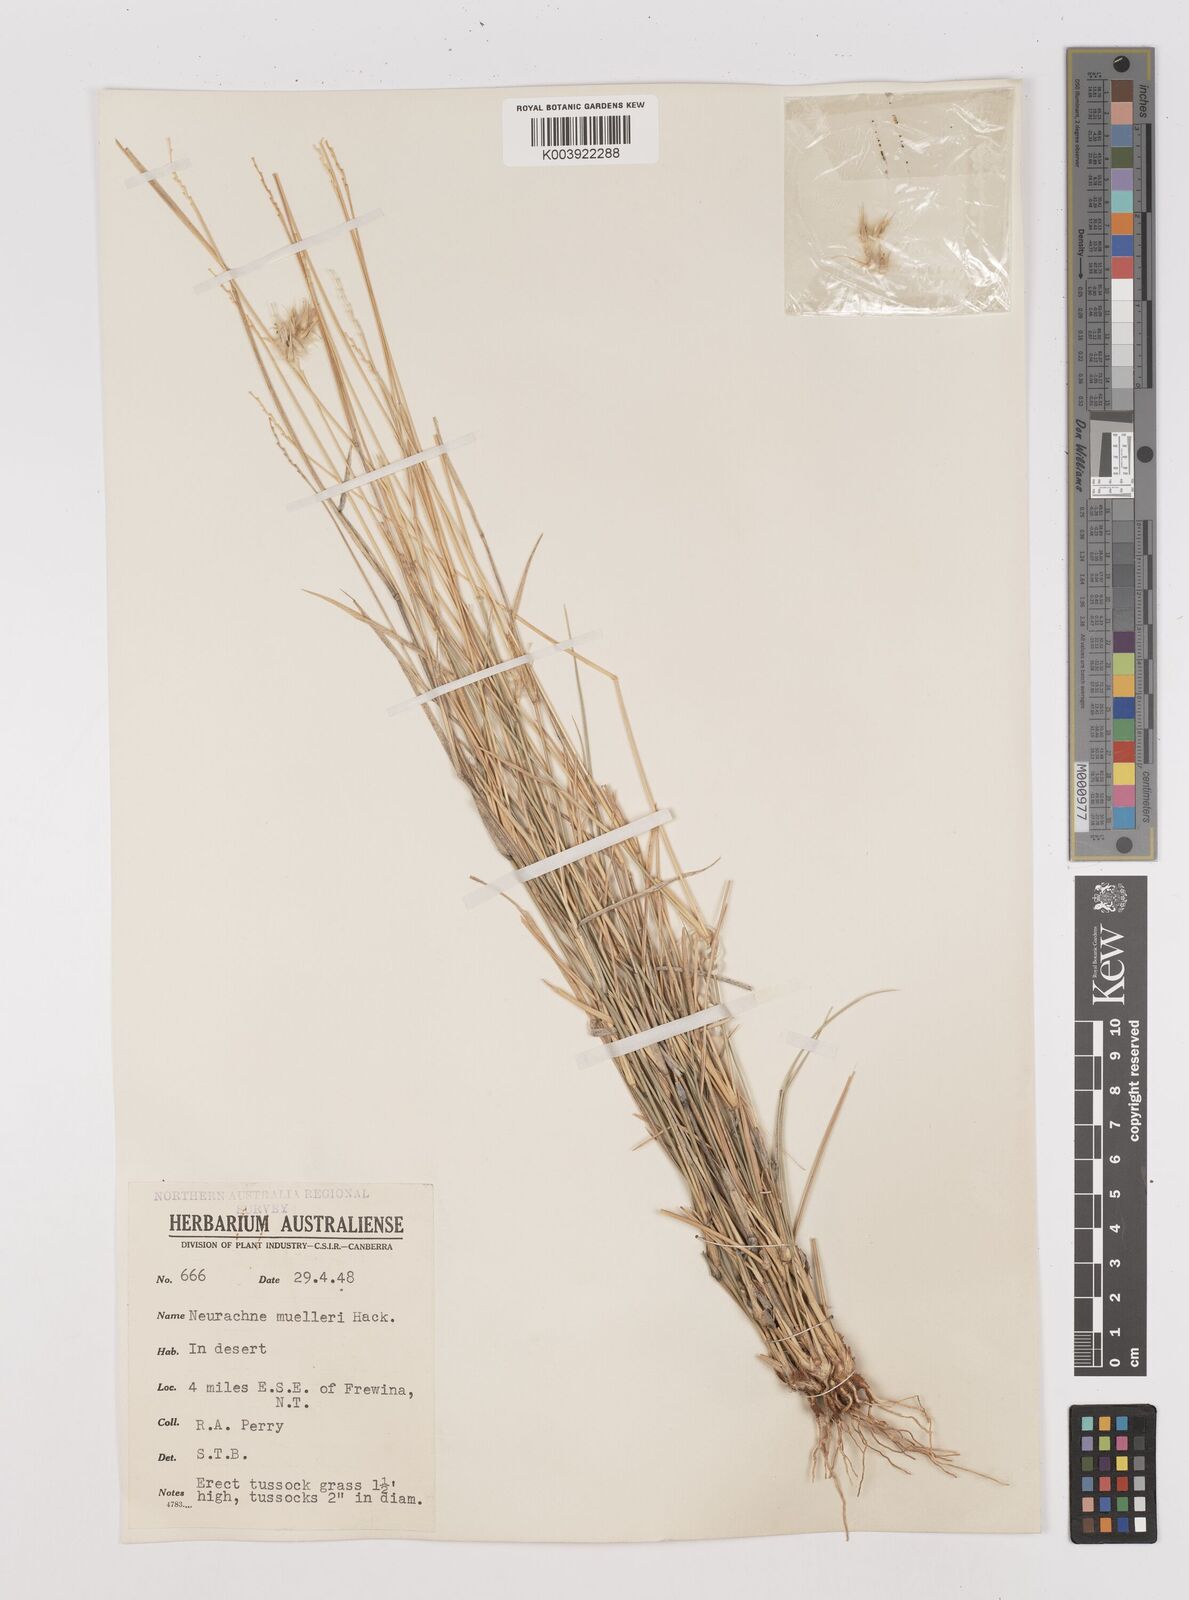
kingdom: Plantae
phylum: Tracheophyta
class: Liliopsida
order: Poales
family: Poaceae
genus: Neurachne
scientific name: Neurachne muelleri
